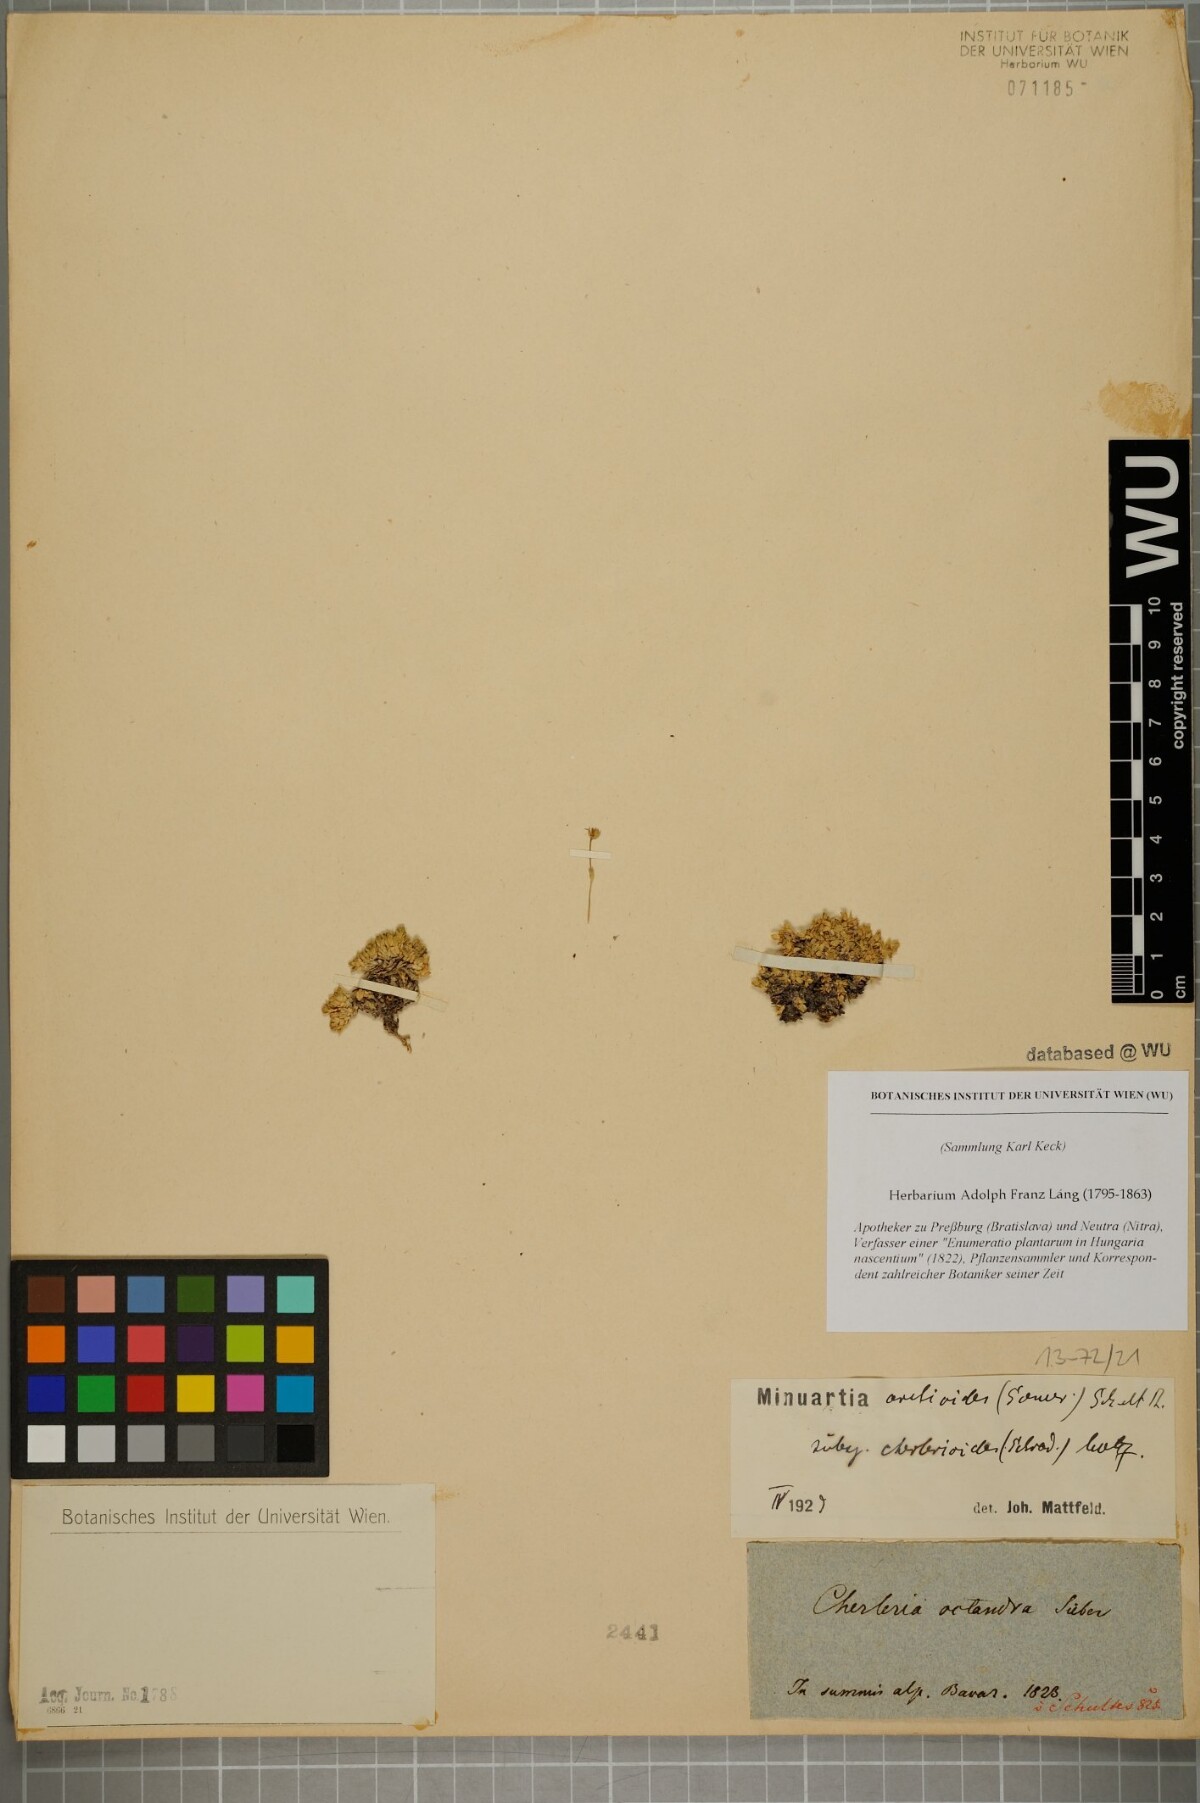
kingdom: Plantae
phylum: Tracheophyta
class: Magnoliopsida
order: Caryophyllales
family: Caryophyllaceae
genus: Facchinia
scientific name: Facchinia cherlerioides
